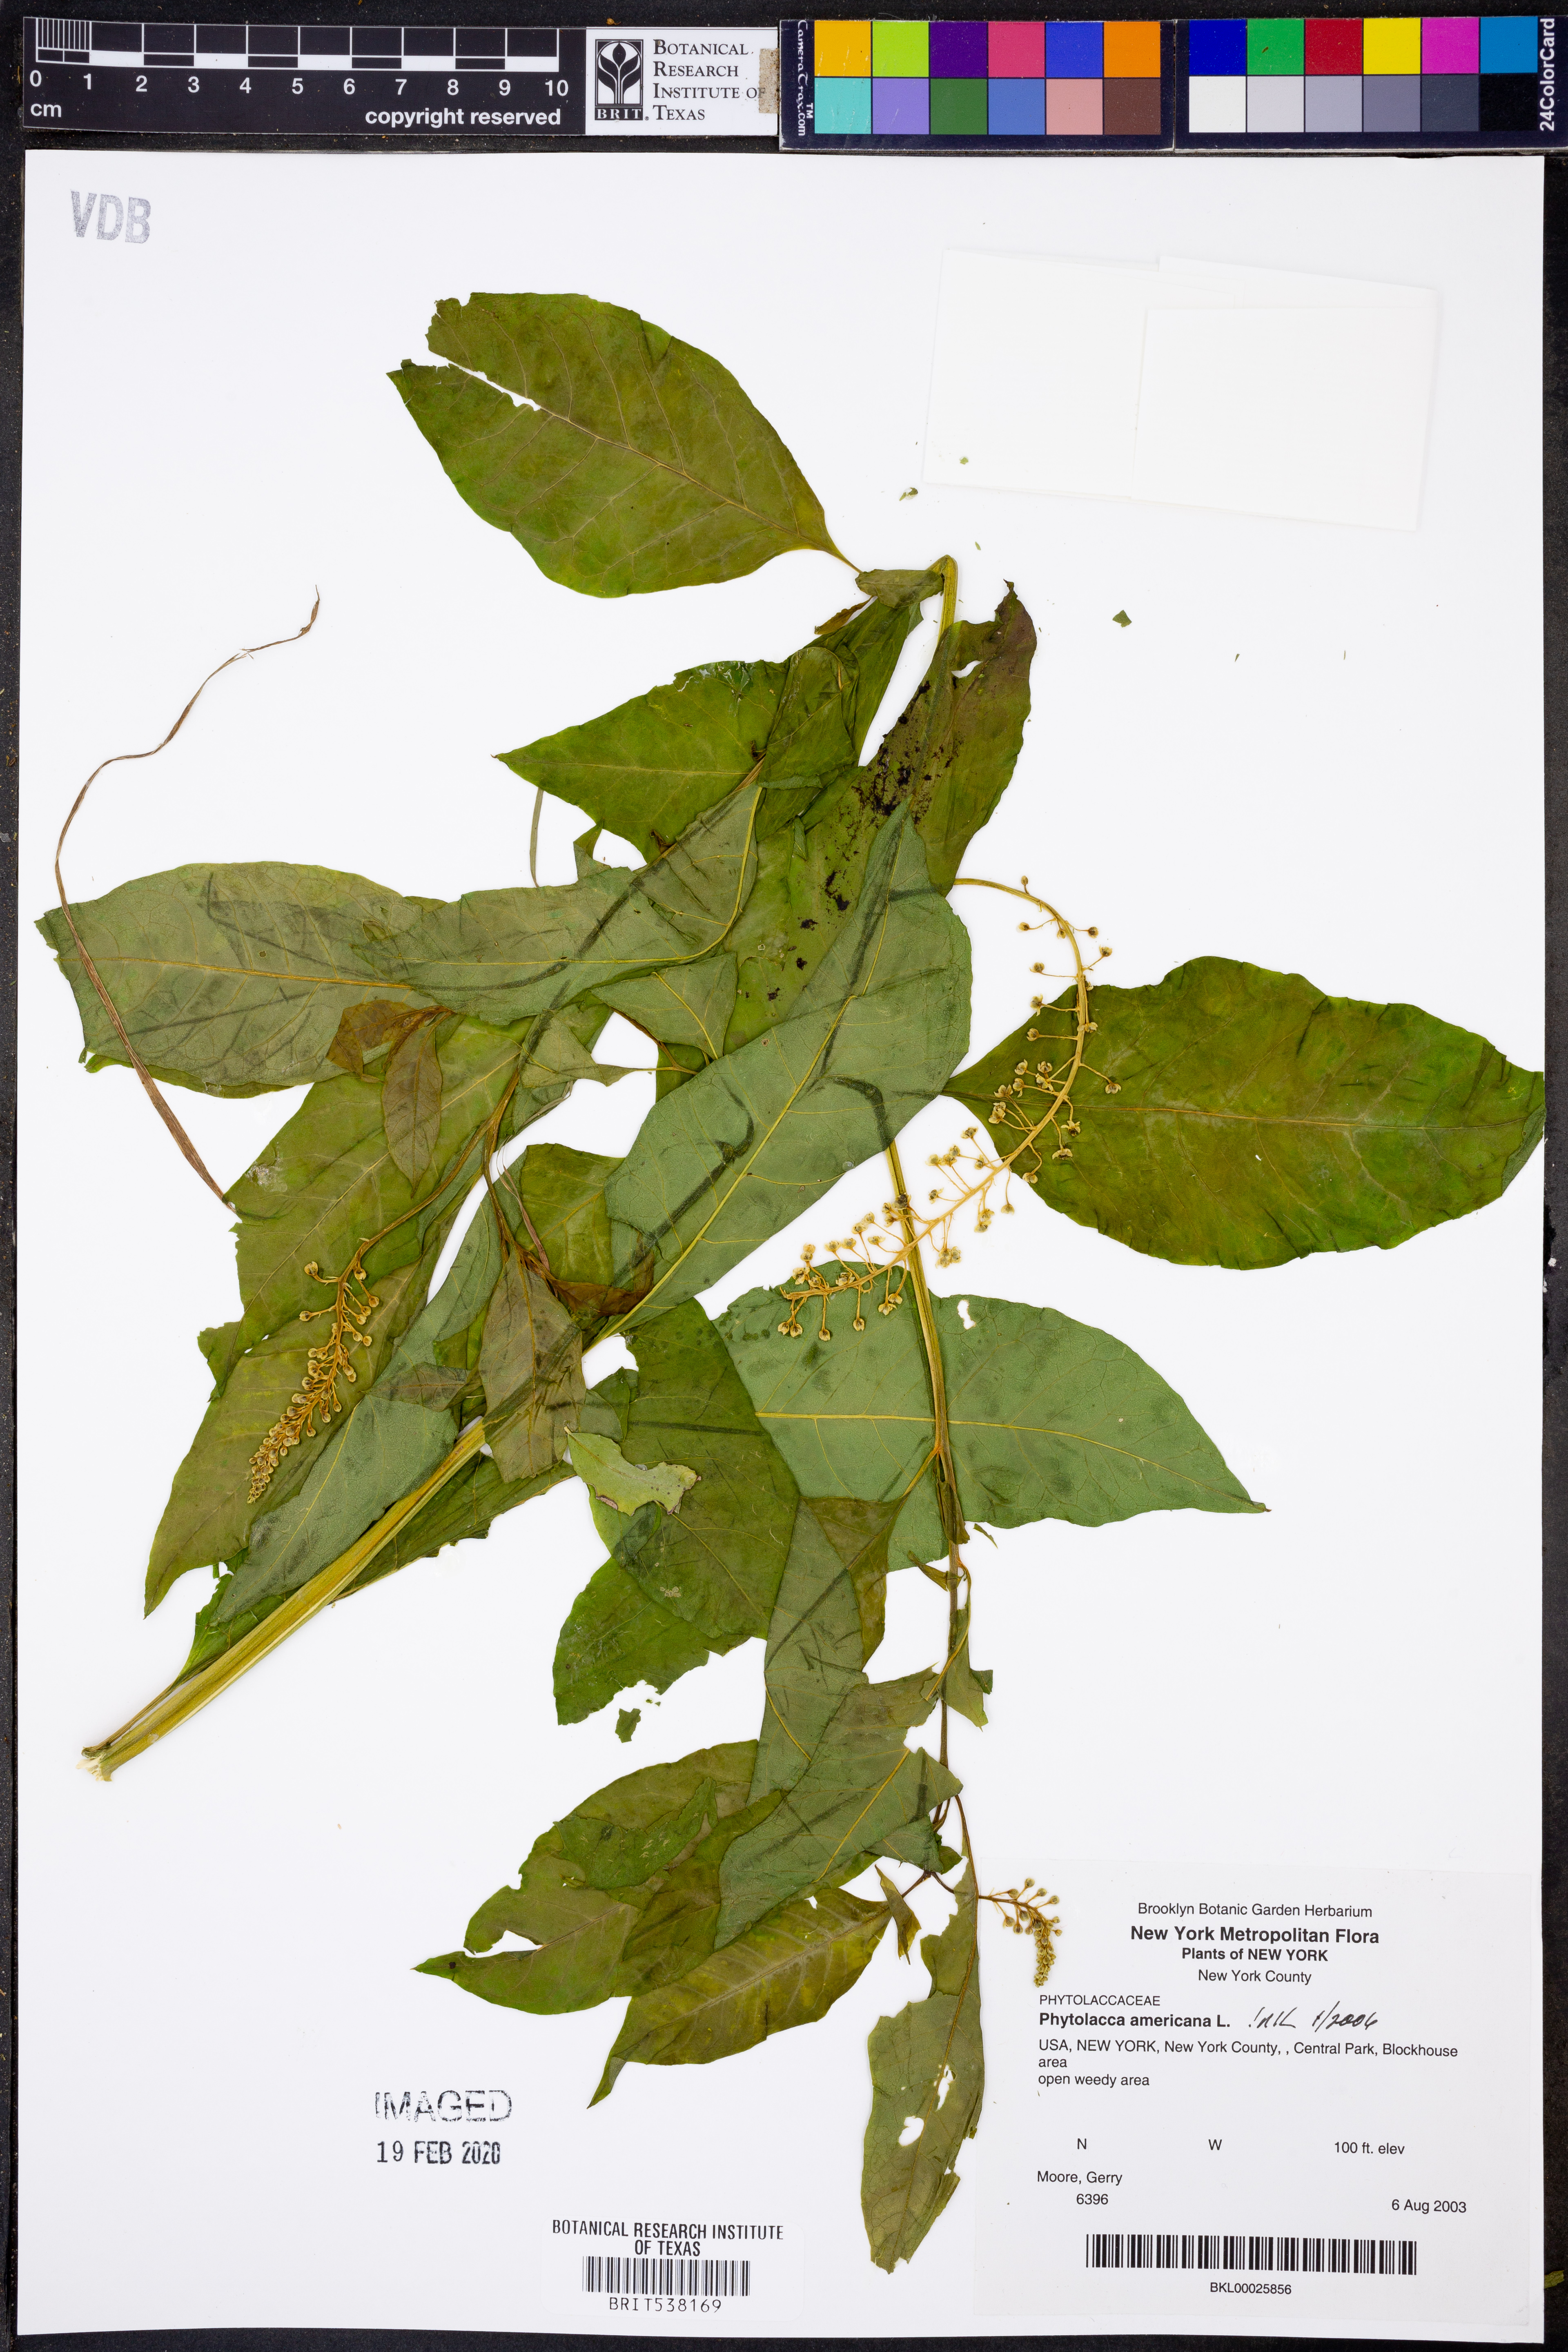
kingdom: Plantae
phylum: Tracheophyta
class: Magnoliopsida
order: Caryophyllales
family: Phytolaccaceae
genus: Phytolacca
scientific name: Phytolacca americana
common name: American pokeweed
